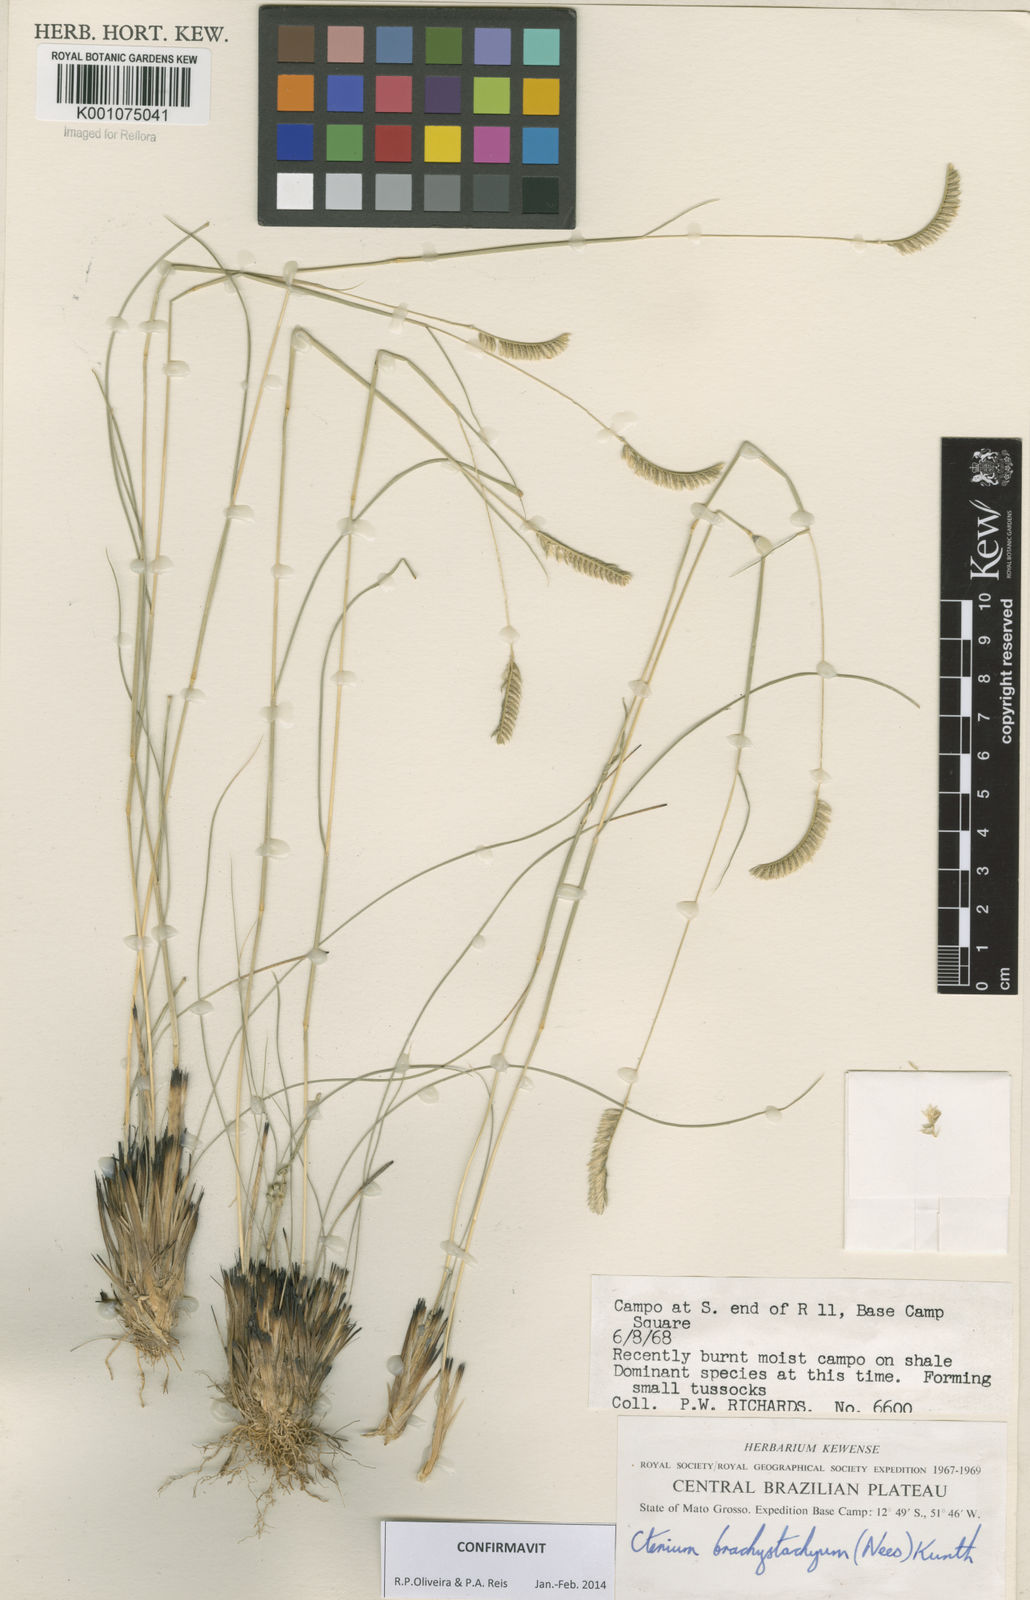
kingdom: Plantae
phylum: Tracheophyta
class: Liliopsida
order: Poales
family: Poaceae
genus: Ctenium
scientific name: Ctenium brachystachyum
